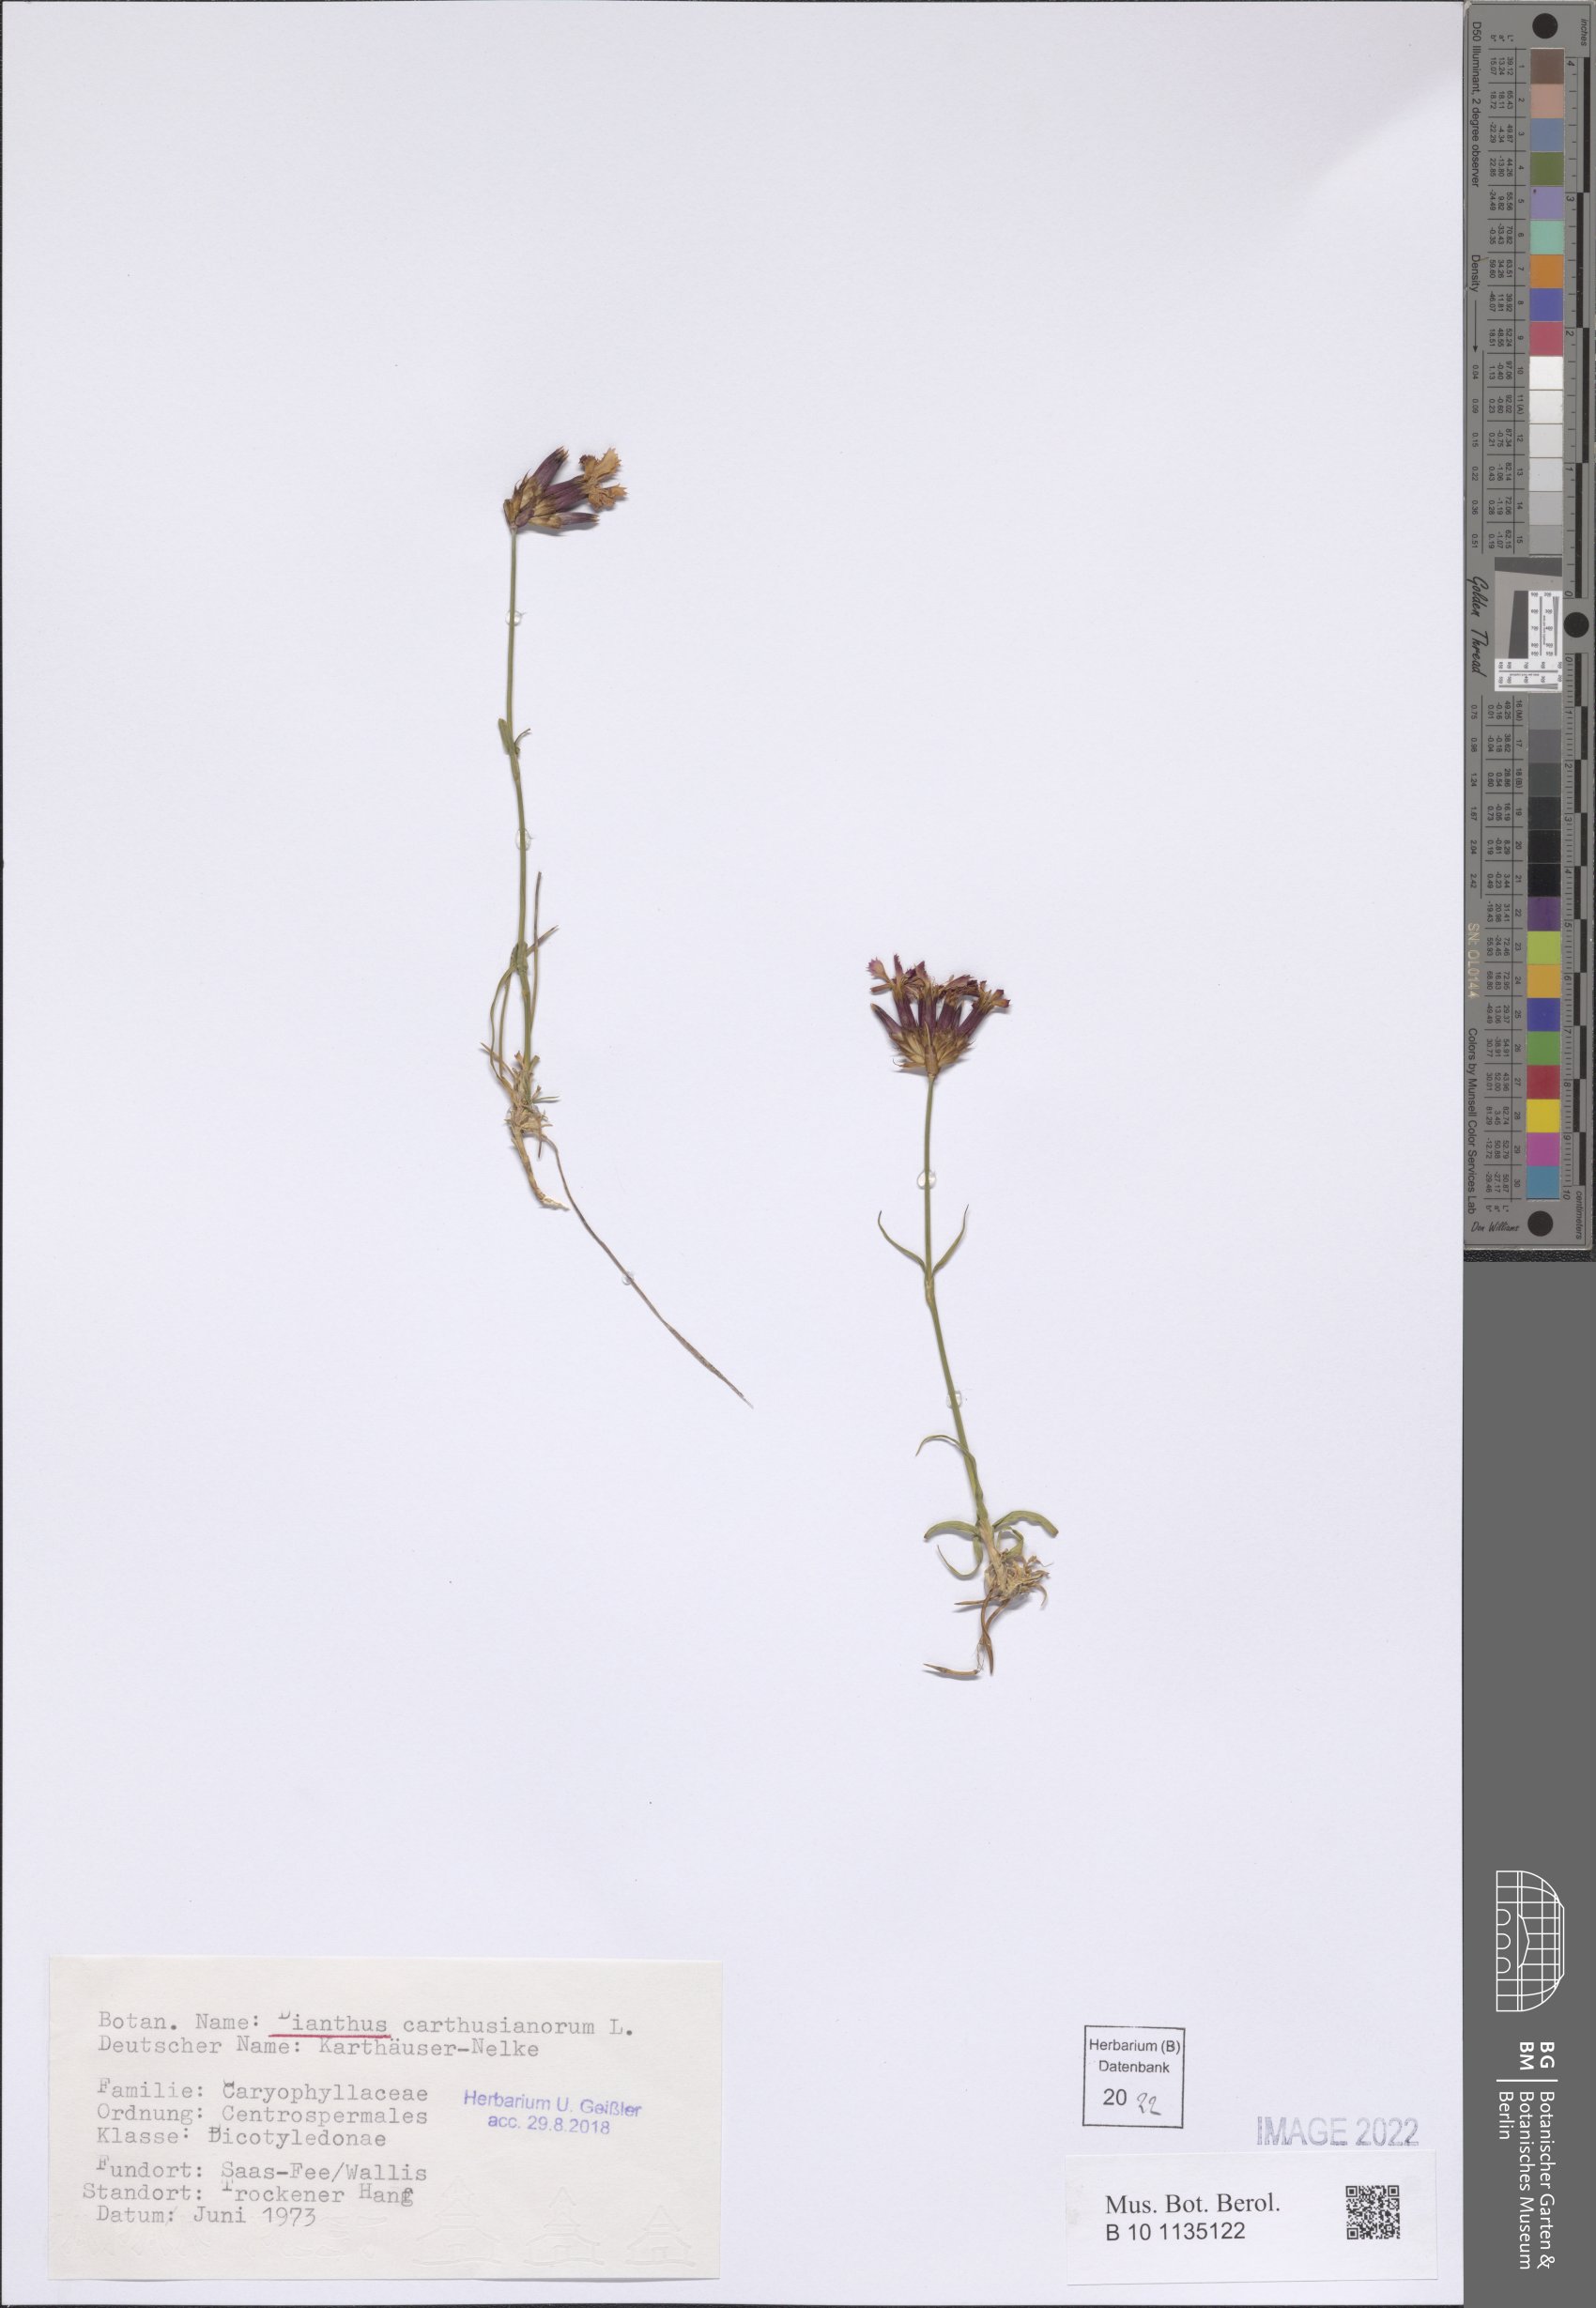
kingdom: Plantae
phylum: Tracheophyta
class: Magnoliopsida
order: Caryophyllales
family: Caryophyllaceae
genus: Dianthus
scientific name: Dianthus carthusianorum
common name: Carthusian pink
